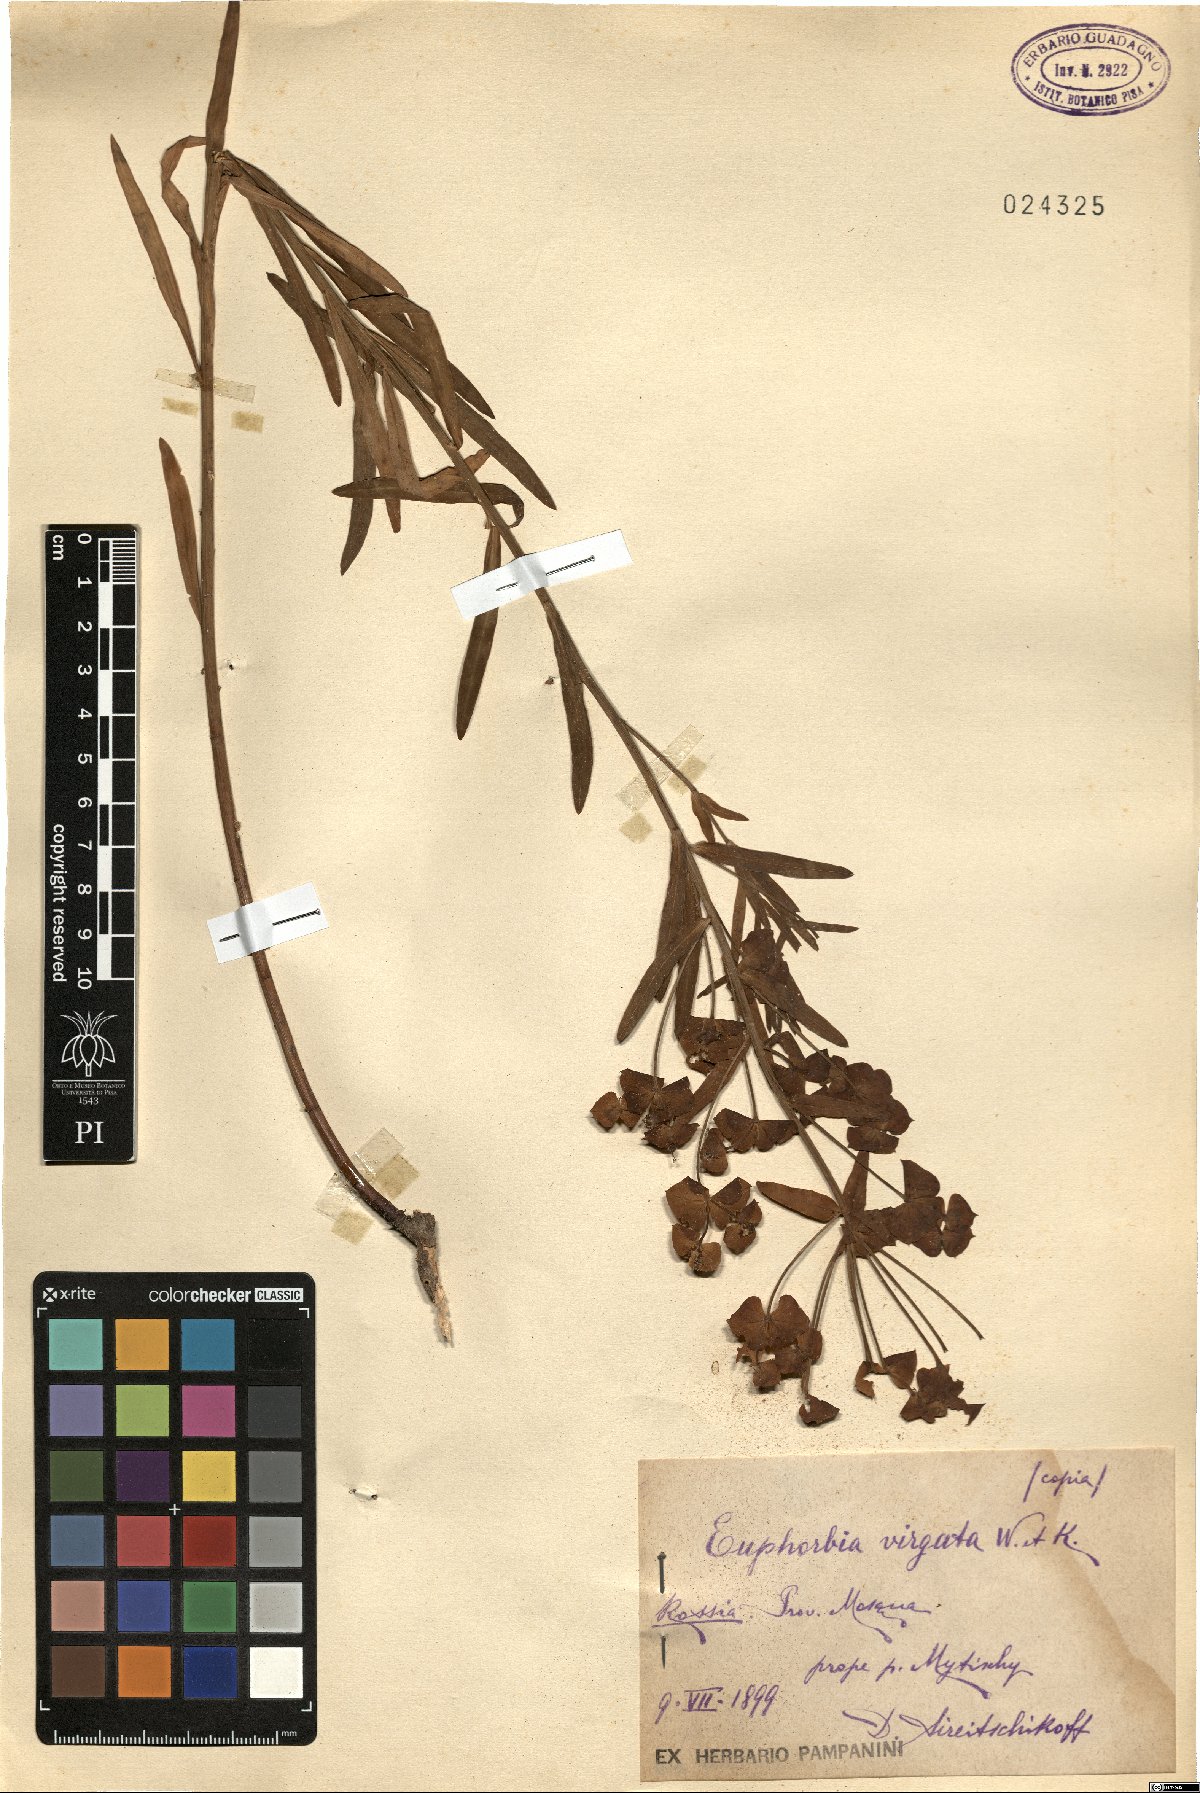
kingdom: Plantae
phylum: Tracheophyta
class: Magnoliopsida
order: Malpighiales
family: Euphorbiaceae
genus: Euphorbia
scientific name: Euphorbia virgata
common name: Leafy spurge
